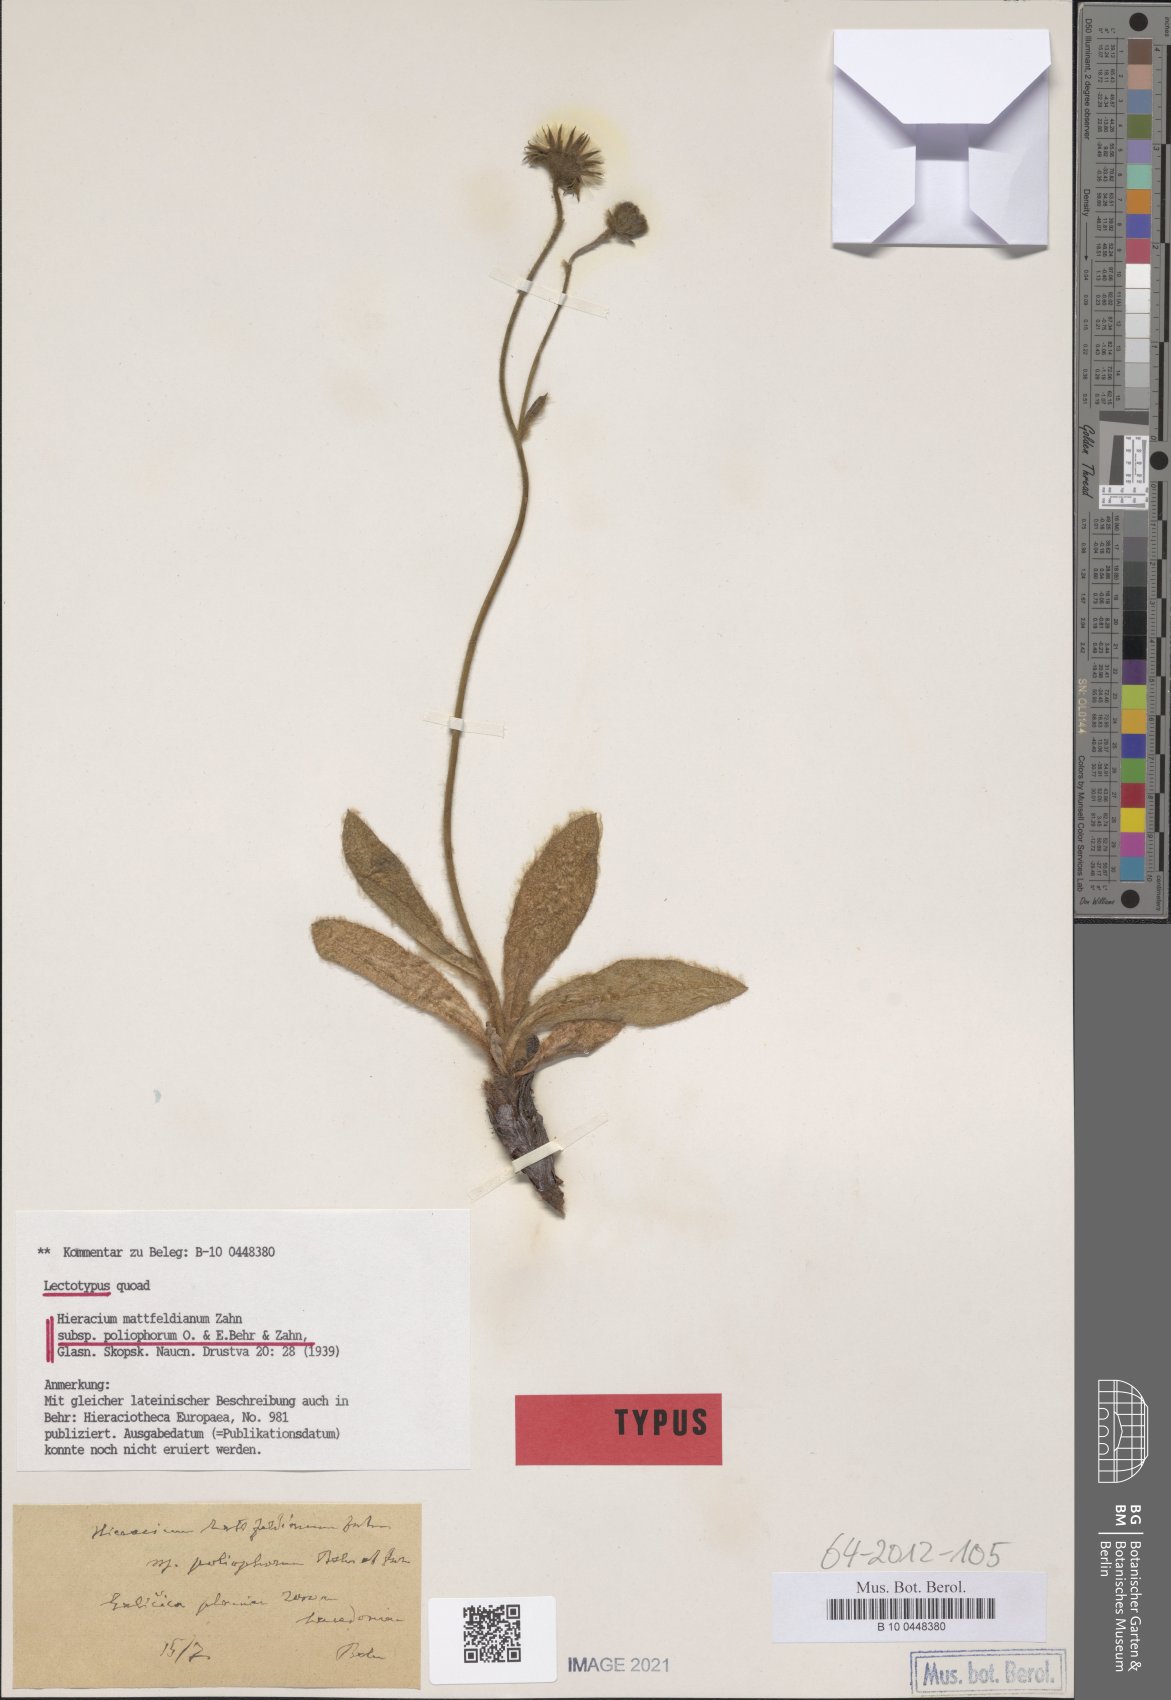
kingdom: Plantae
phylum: Tracheophyta
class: Magnoliopsida
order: Asterales
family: Asteraceae
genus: Hieracium
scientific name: Hieracium mattfeldianum
